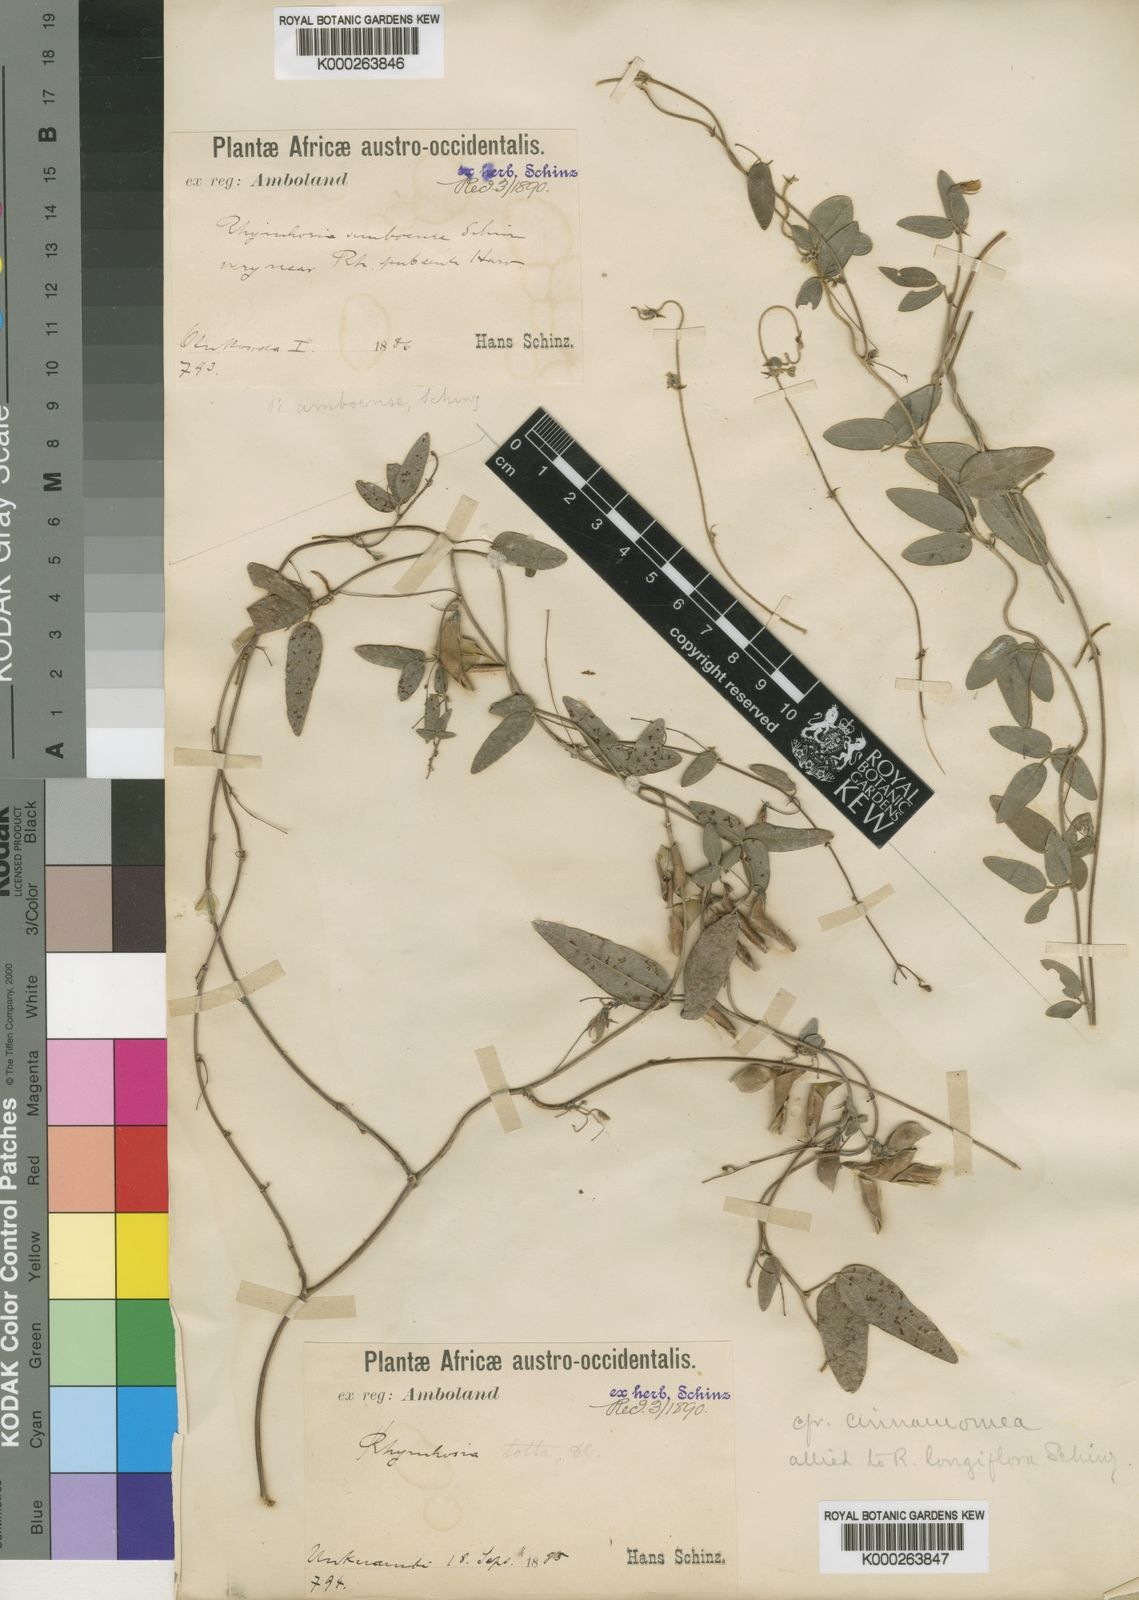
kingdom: Plantae
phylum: Tracheophyta
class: Magnoliopsida
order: Fabales
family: Fabaceae
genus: Rhynchosia
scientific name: Rhynchosia
